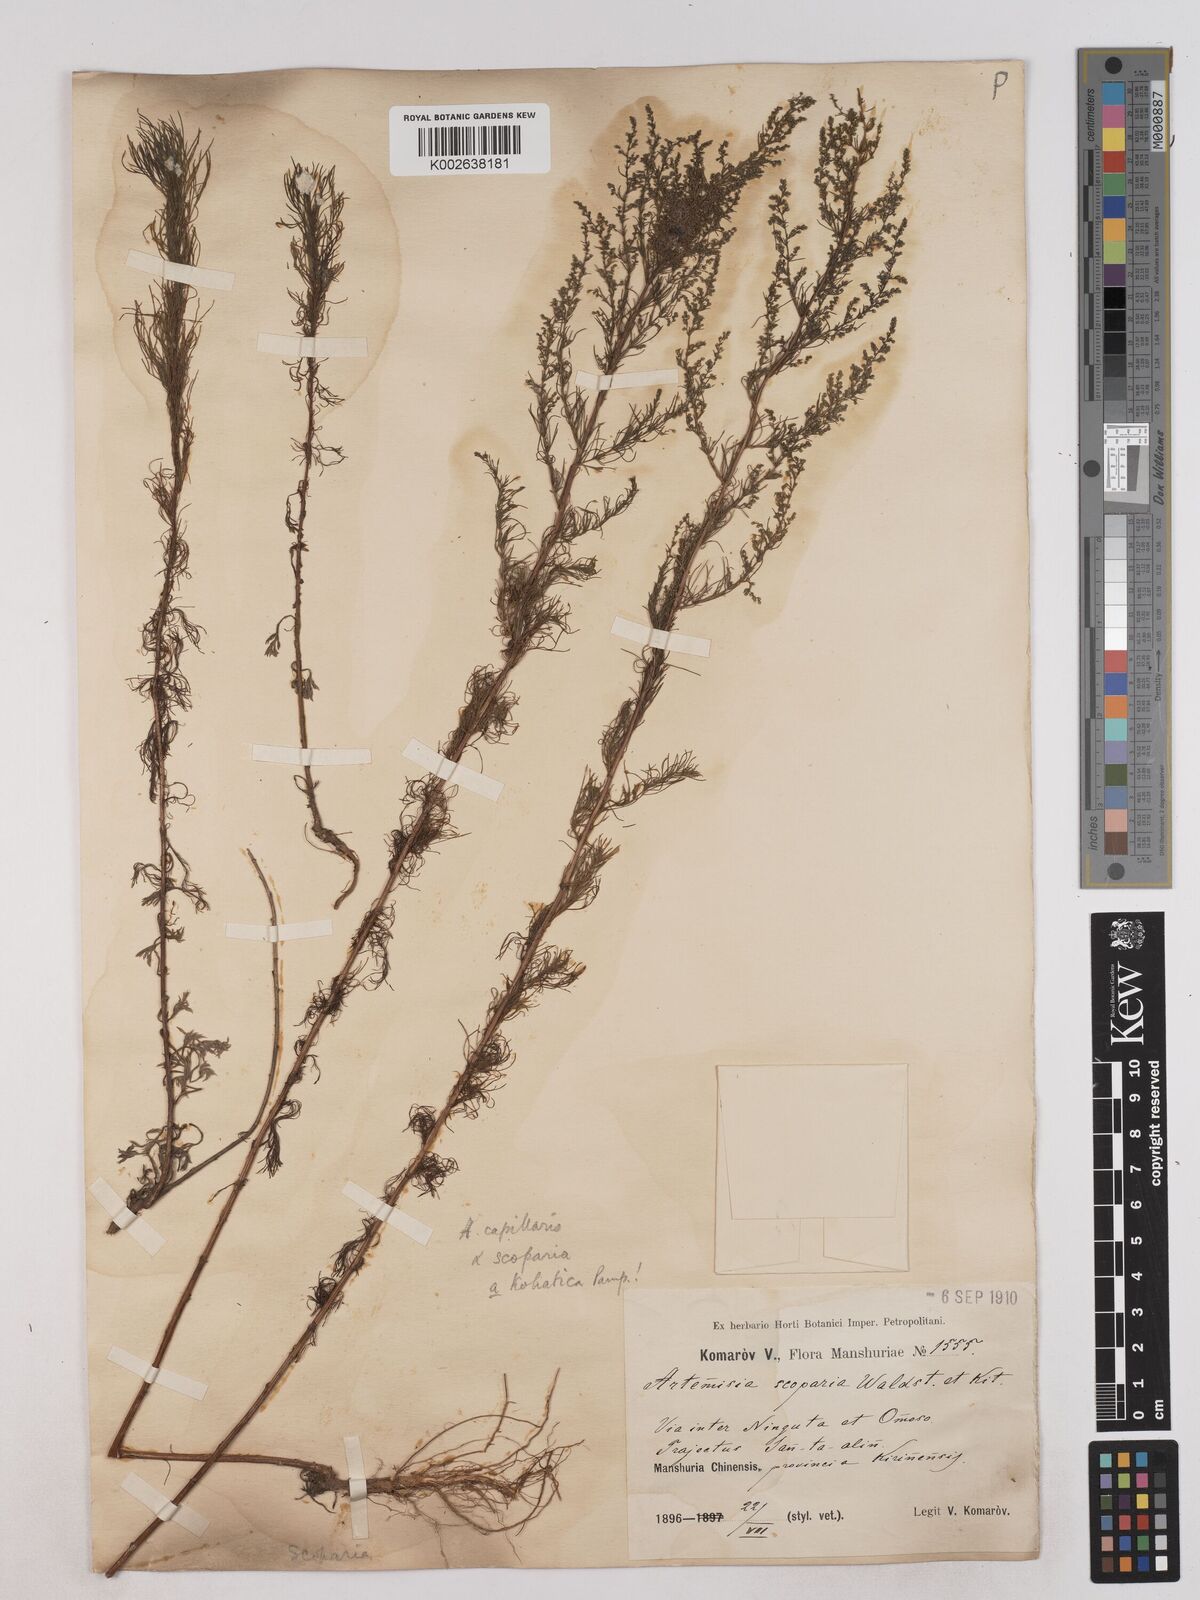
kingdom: Plantae
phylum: Tracheophyta
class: Magnoliopsida
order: Asterales
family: Asteraceae
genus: Artemisia
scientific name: Artemisia scoparia
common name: Redstem wormwood
